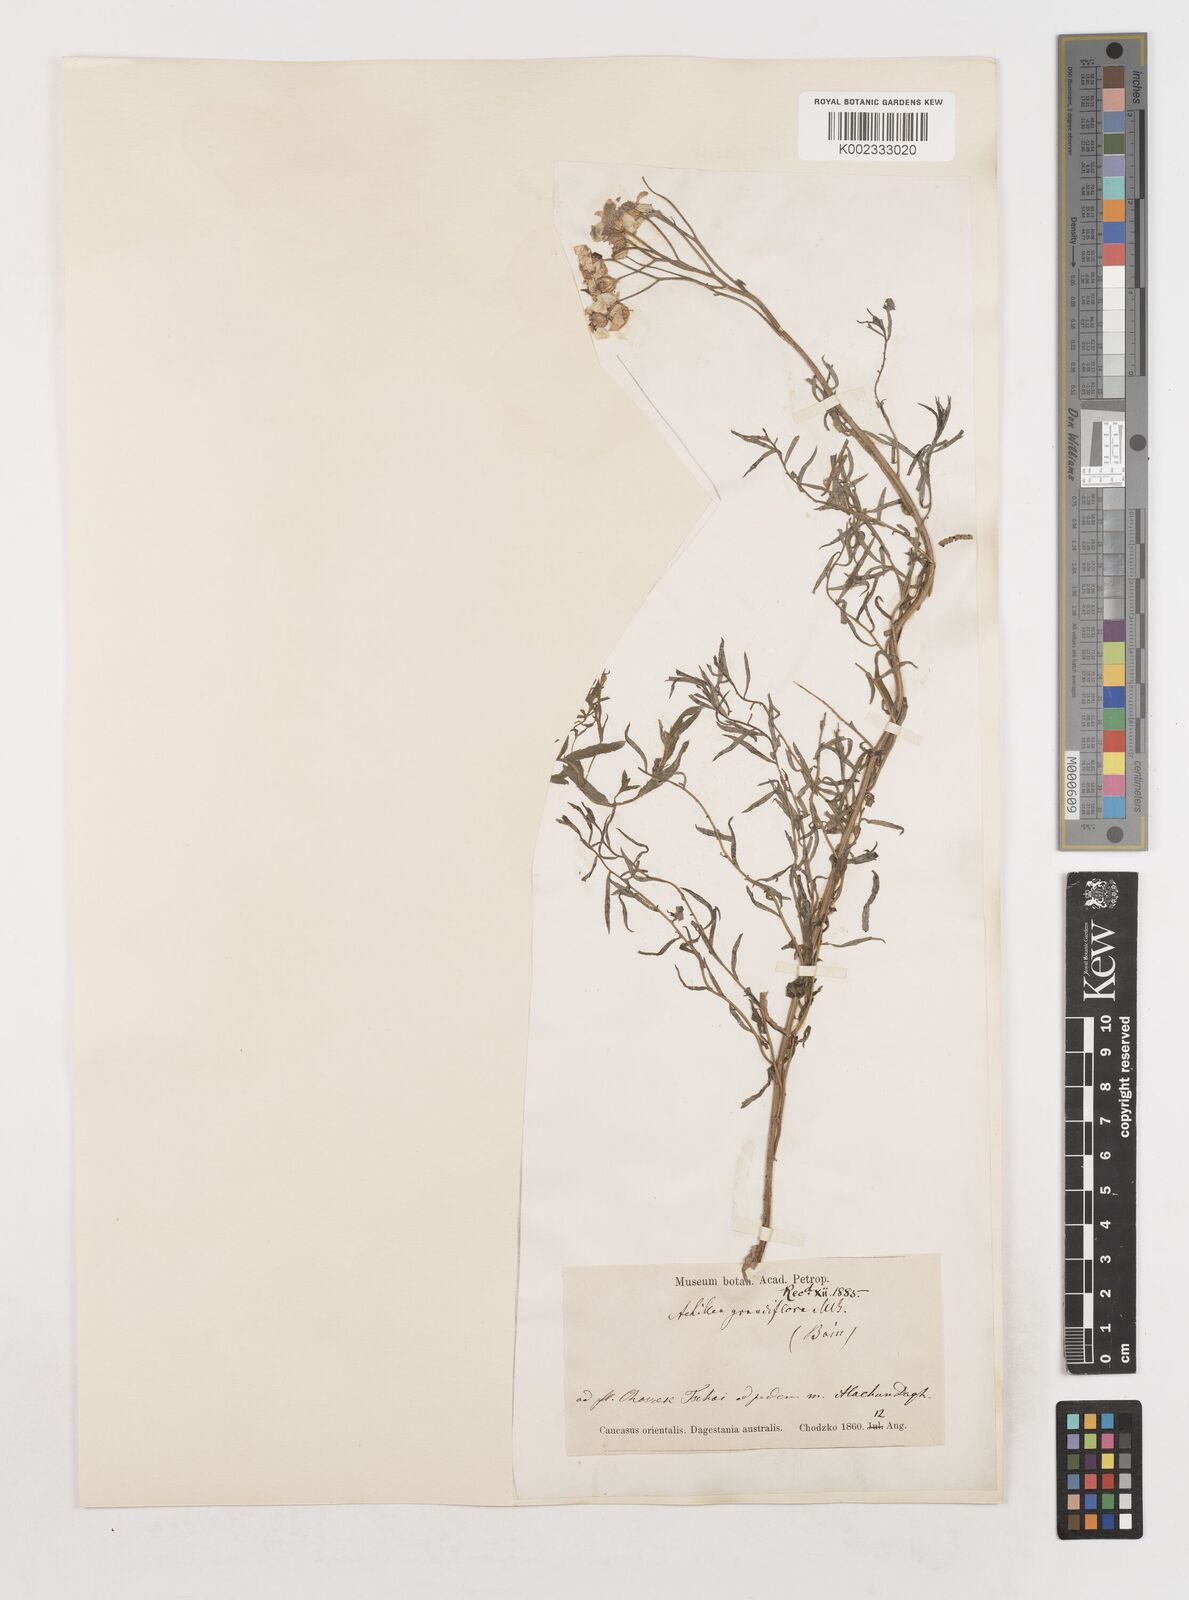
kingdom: Plantae
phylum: Tracheophyta
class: Magnoliopsida
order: Asterales
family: Asteraceae
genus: Achillea
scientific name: Achillea ptarmicifolia
